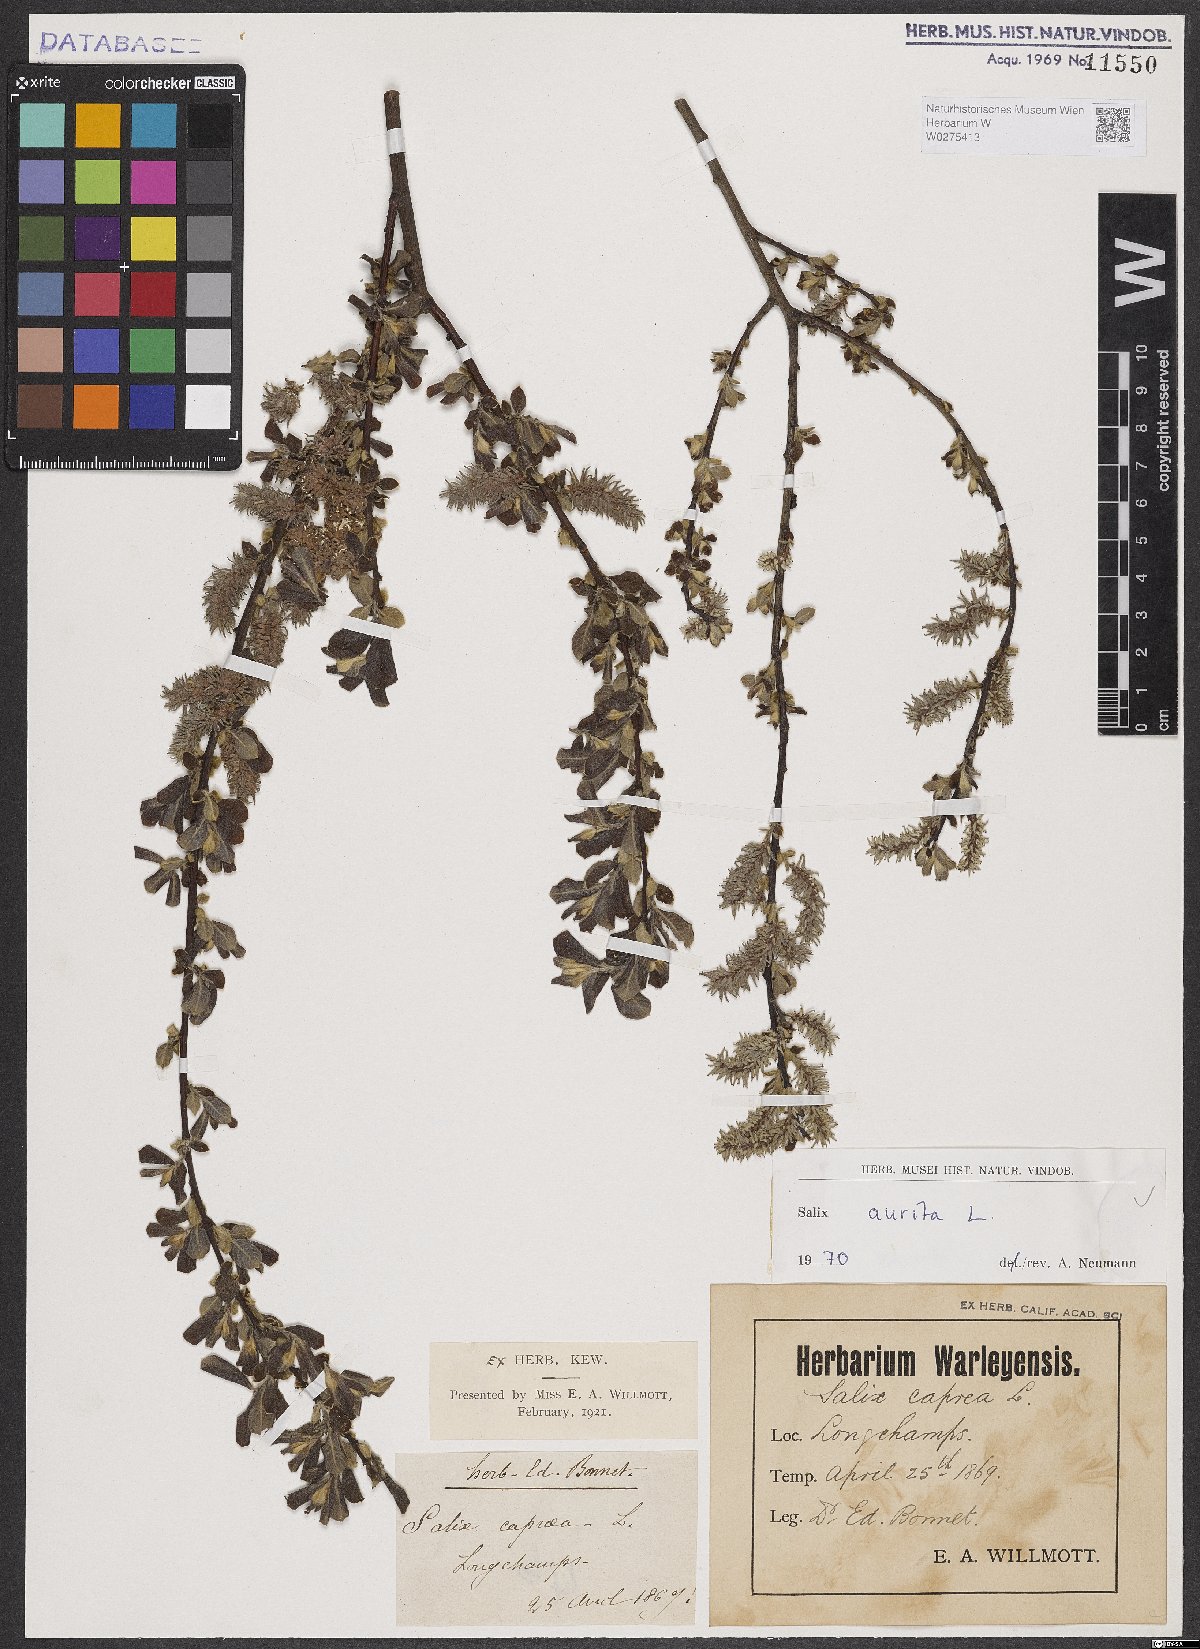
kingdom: Plantae
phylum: Tracheophyta
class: Magnoliopsida
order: Malpighiales
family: Salicaceae
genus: Salix
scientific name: Salix aurita
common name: Eared willow
